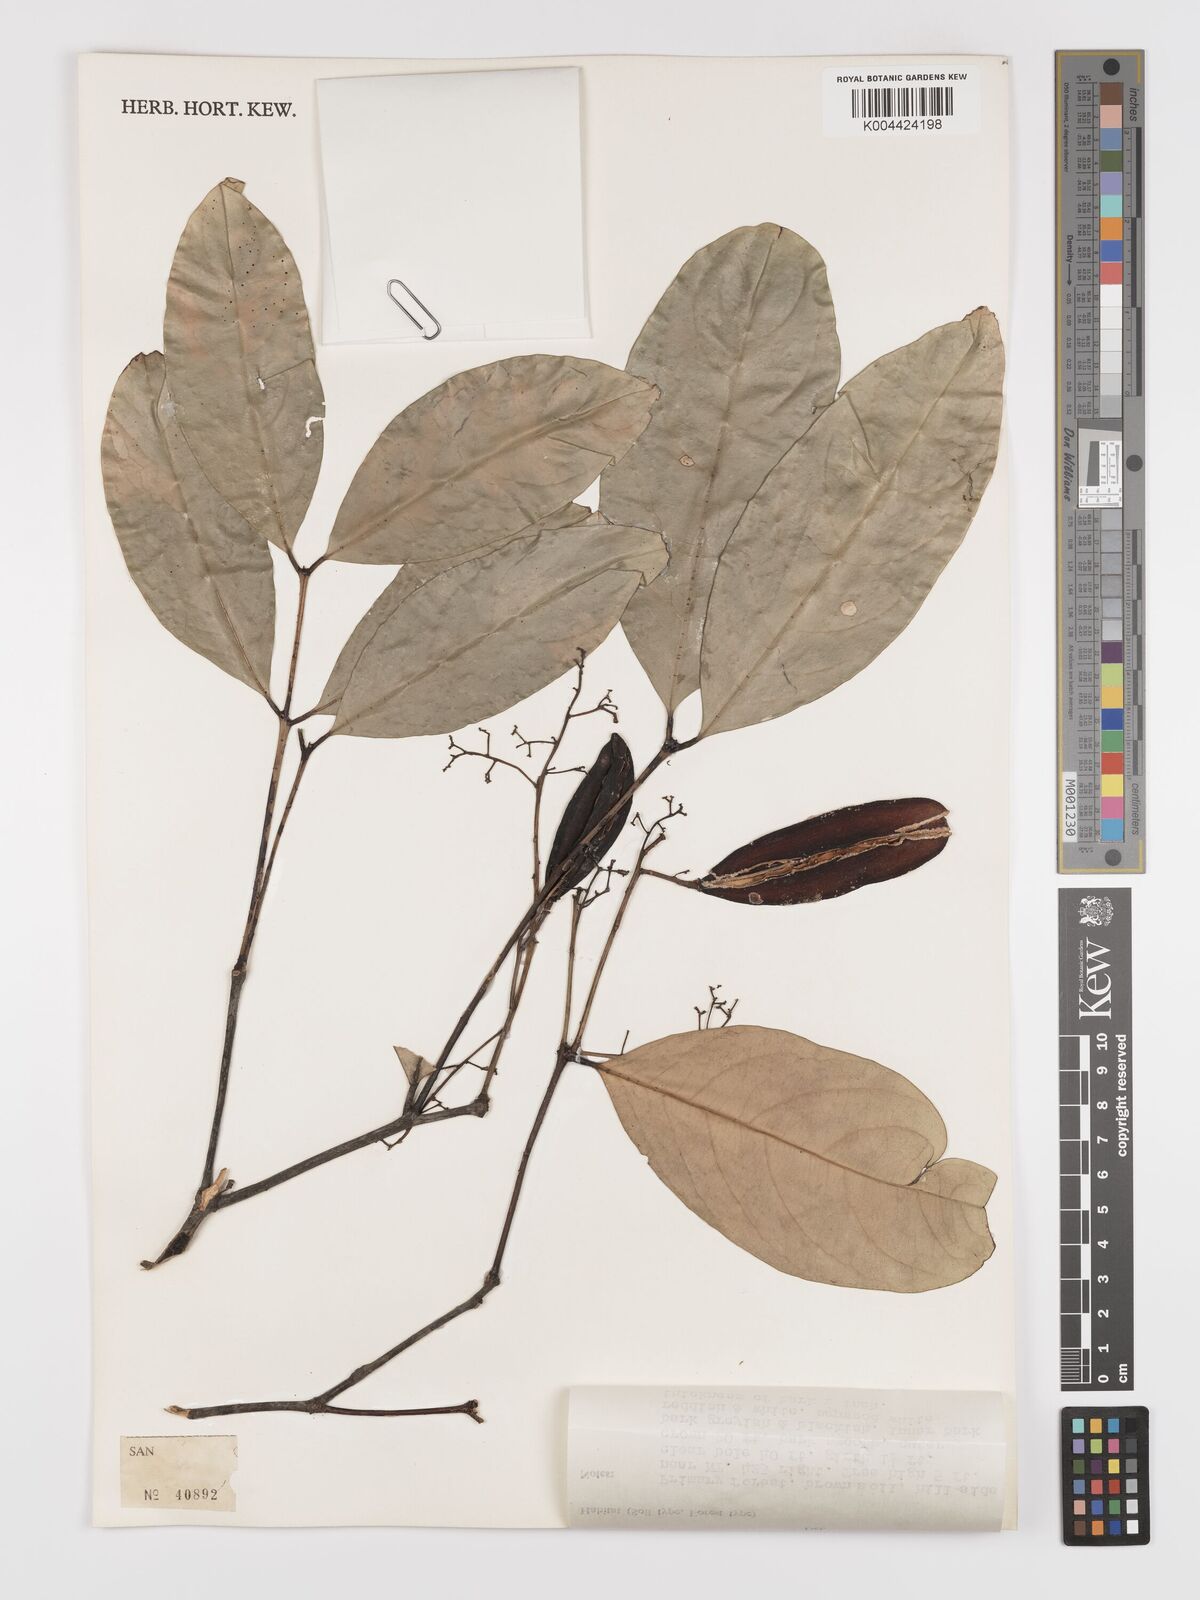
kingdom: Plantae
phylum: Tracheophyta
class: Magnoliopsida
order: Celastrales
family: Celastraceae
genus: Lophopetalum
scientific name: Lophopetalum beccarianum
